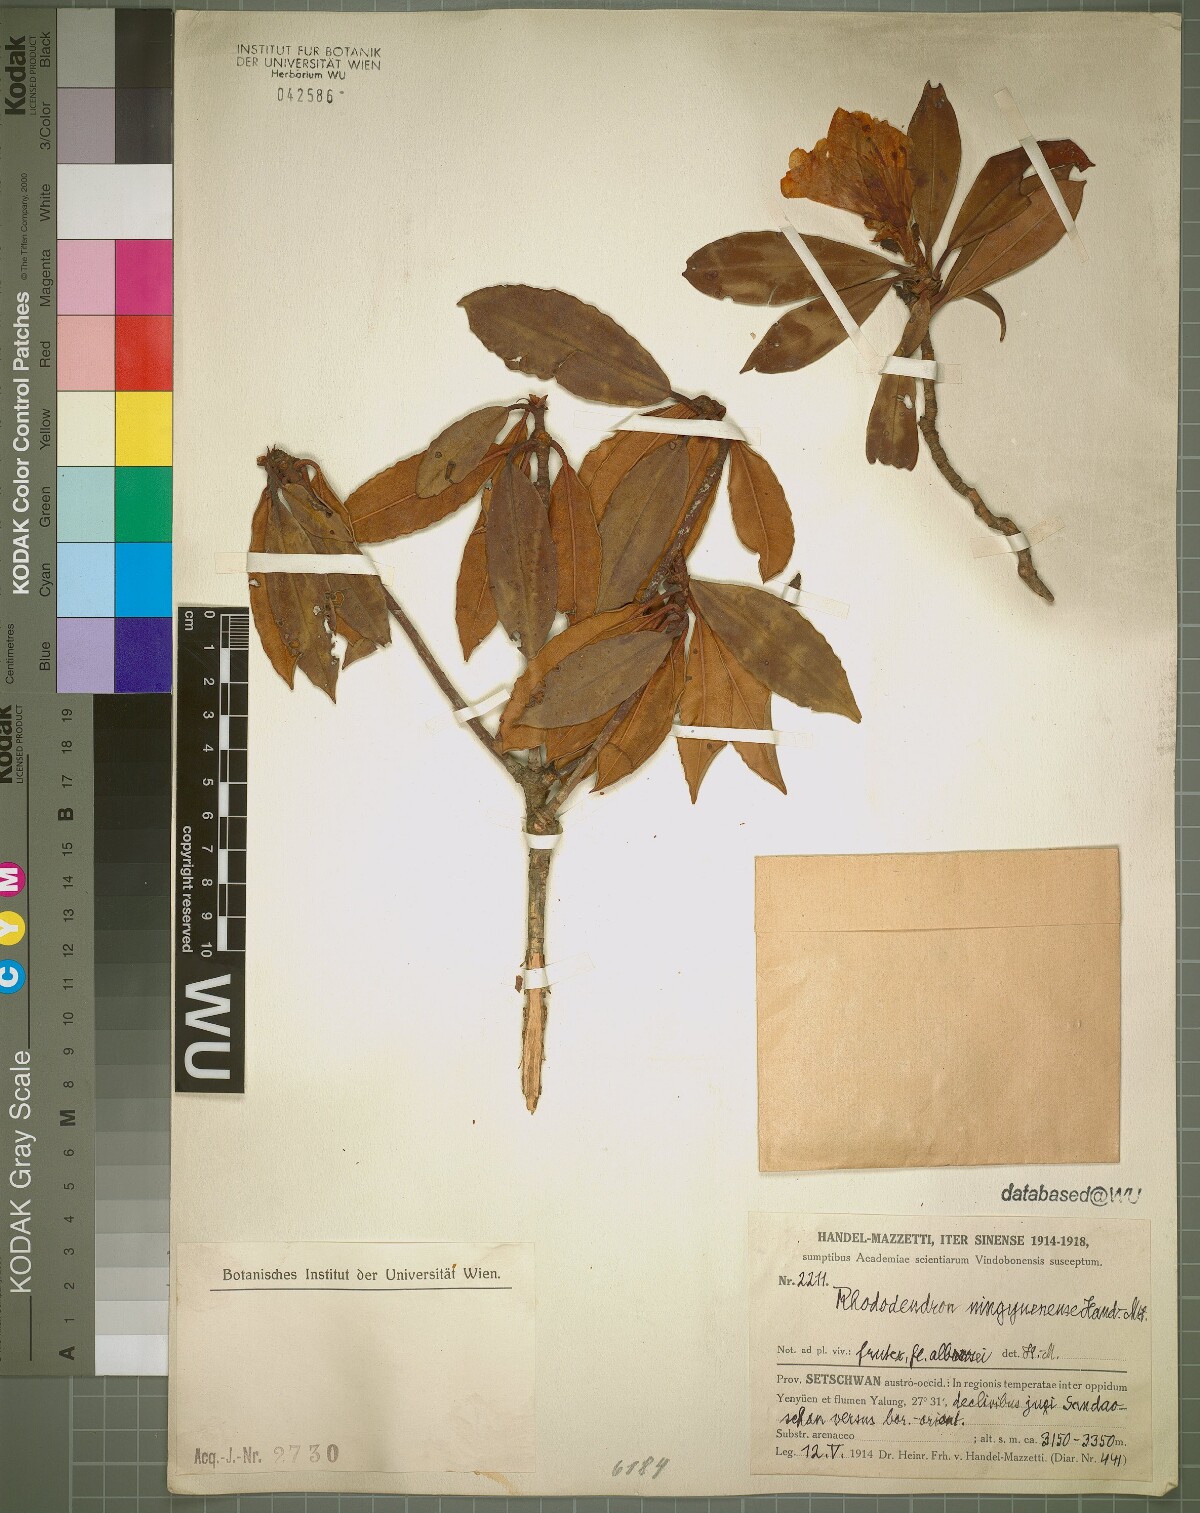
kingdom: Plantae
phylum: Tracheophyta
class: Magnoliopsida
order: Ericales
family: Ericaceae
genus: Rhododendron
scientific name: Rhododendron irroratum
